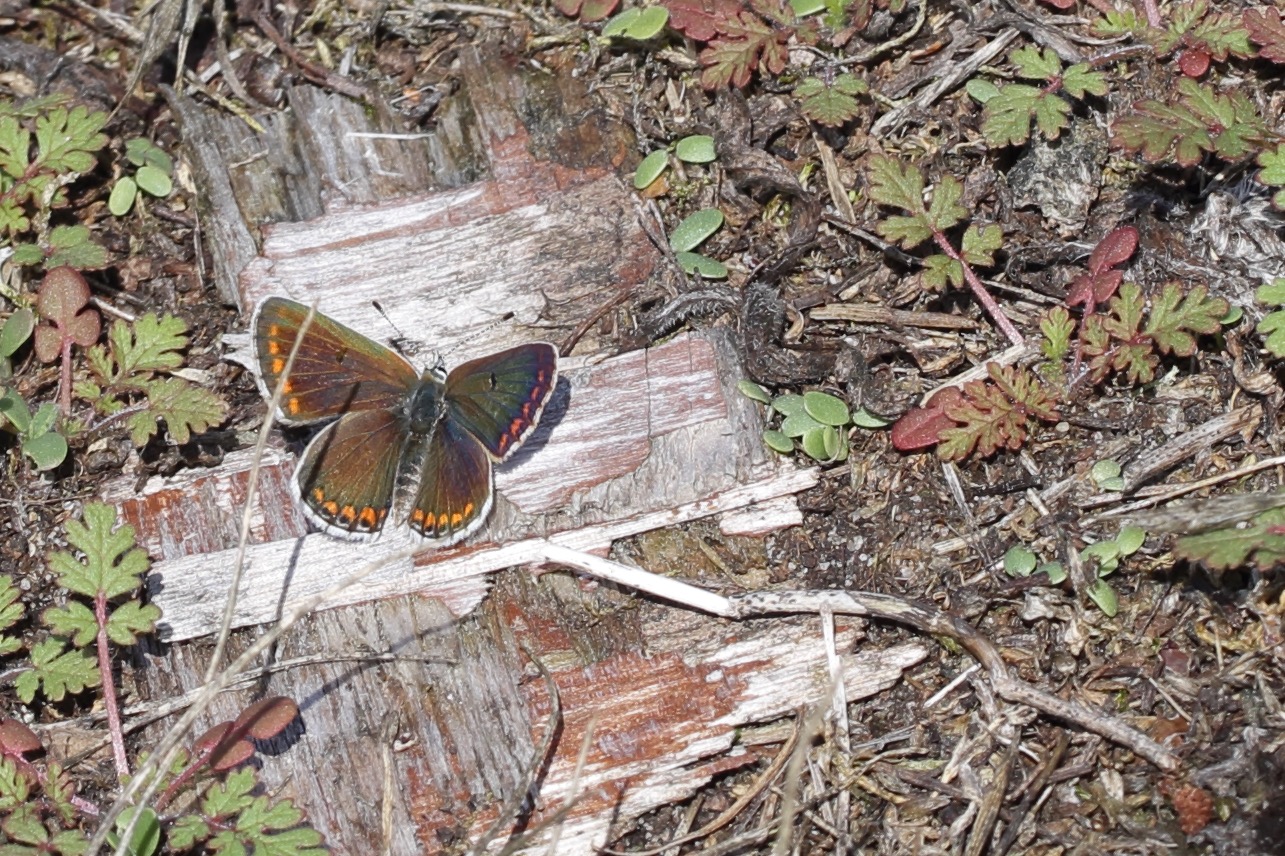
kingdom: Animalia
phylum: Arthropoda
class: Insecta
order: Lepidoptera
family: Lycaenidae
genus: Aricia
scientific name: Aricia agestis
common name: Rødplettet blåfugl
